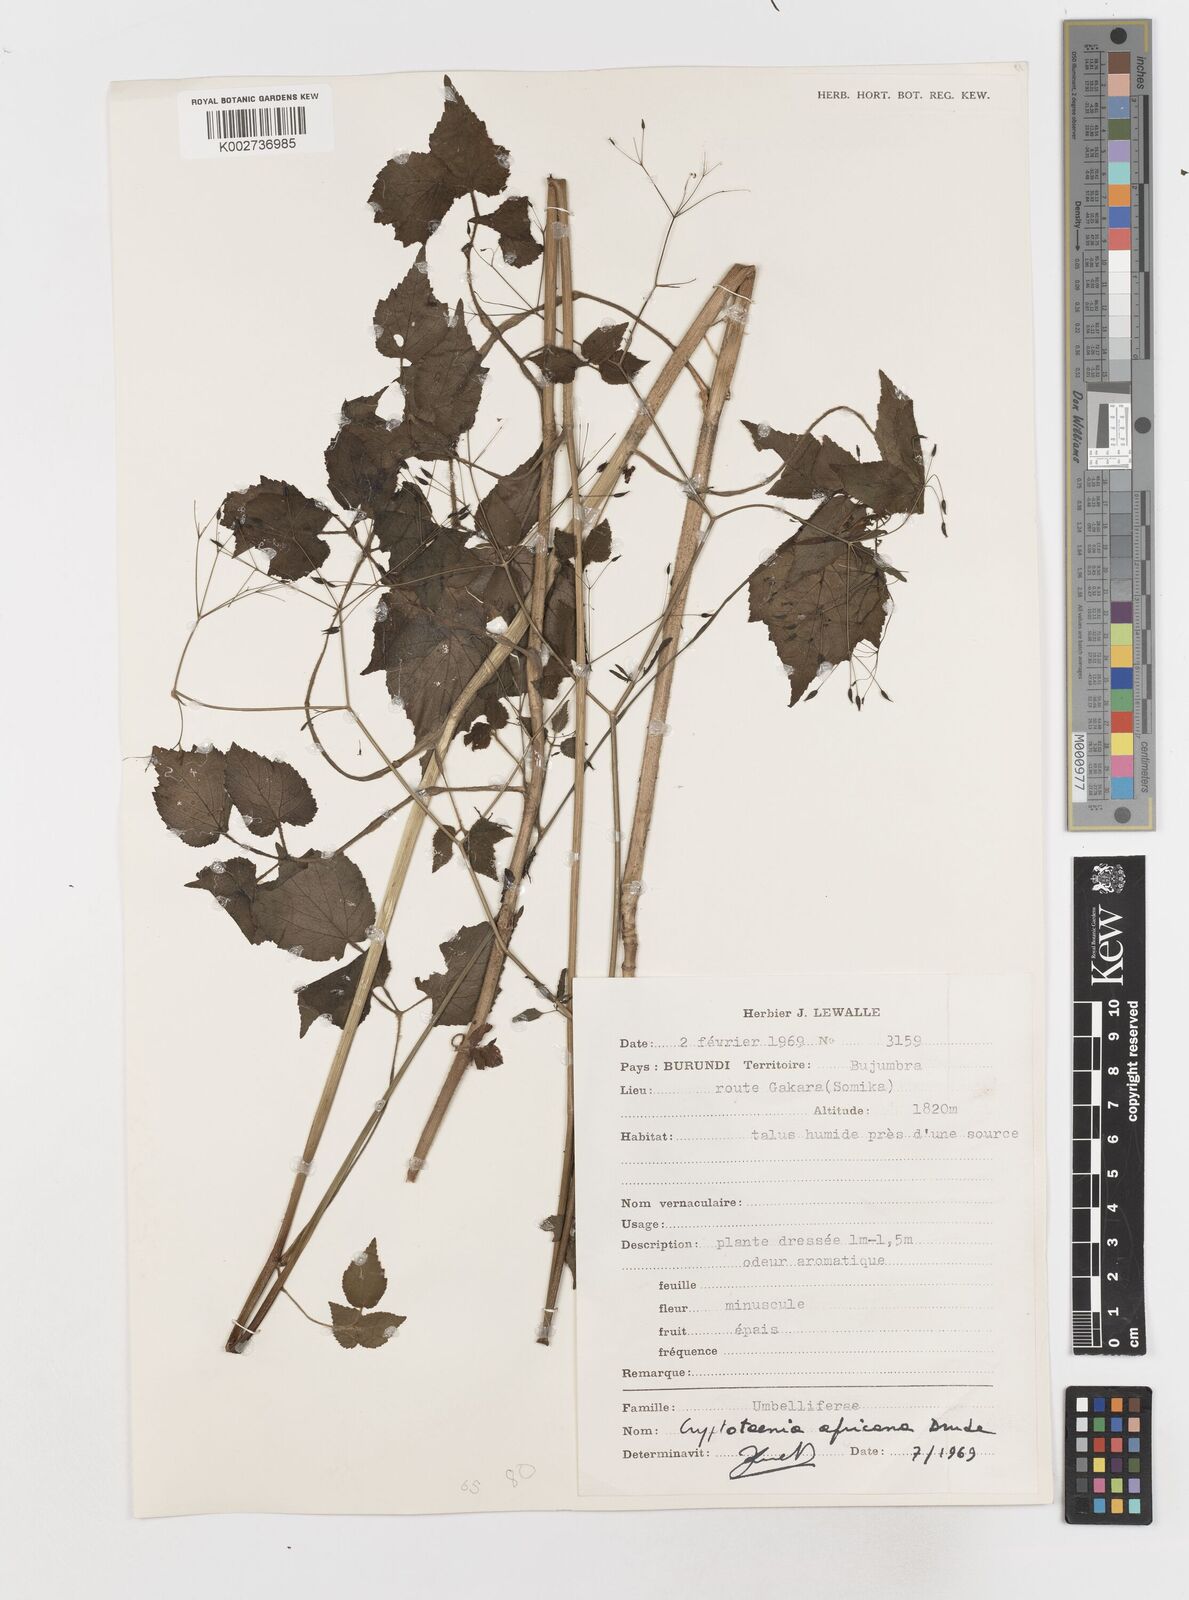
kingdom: Plantae
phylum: Tracheophyta
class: Magnoliopsida
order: Apiales
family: Apiaceae
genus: Cryptotaenia
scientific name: Cryptotaenia africana
